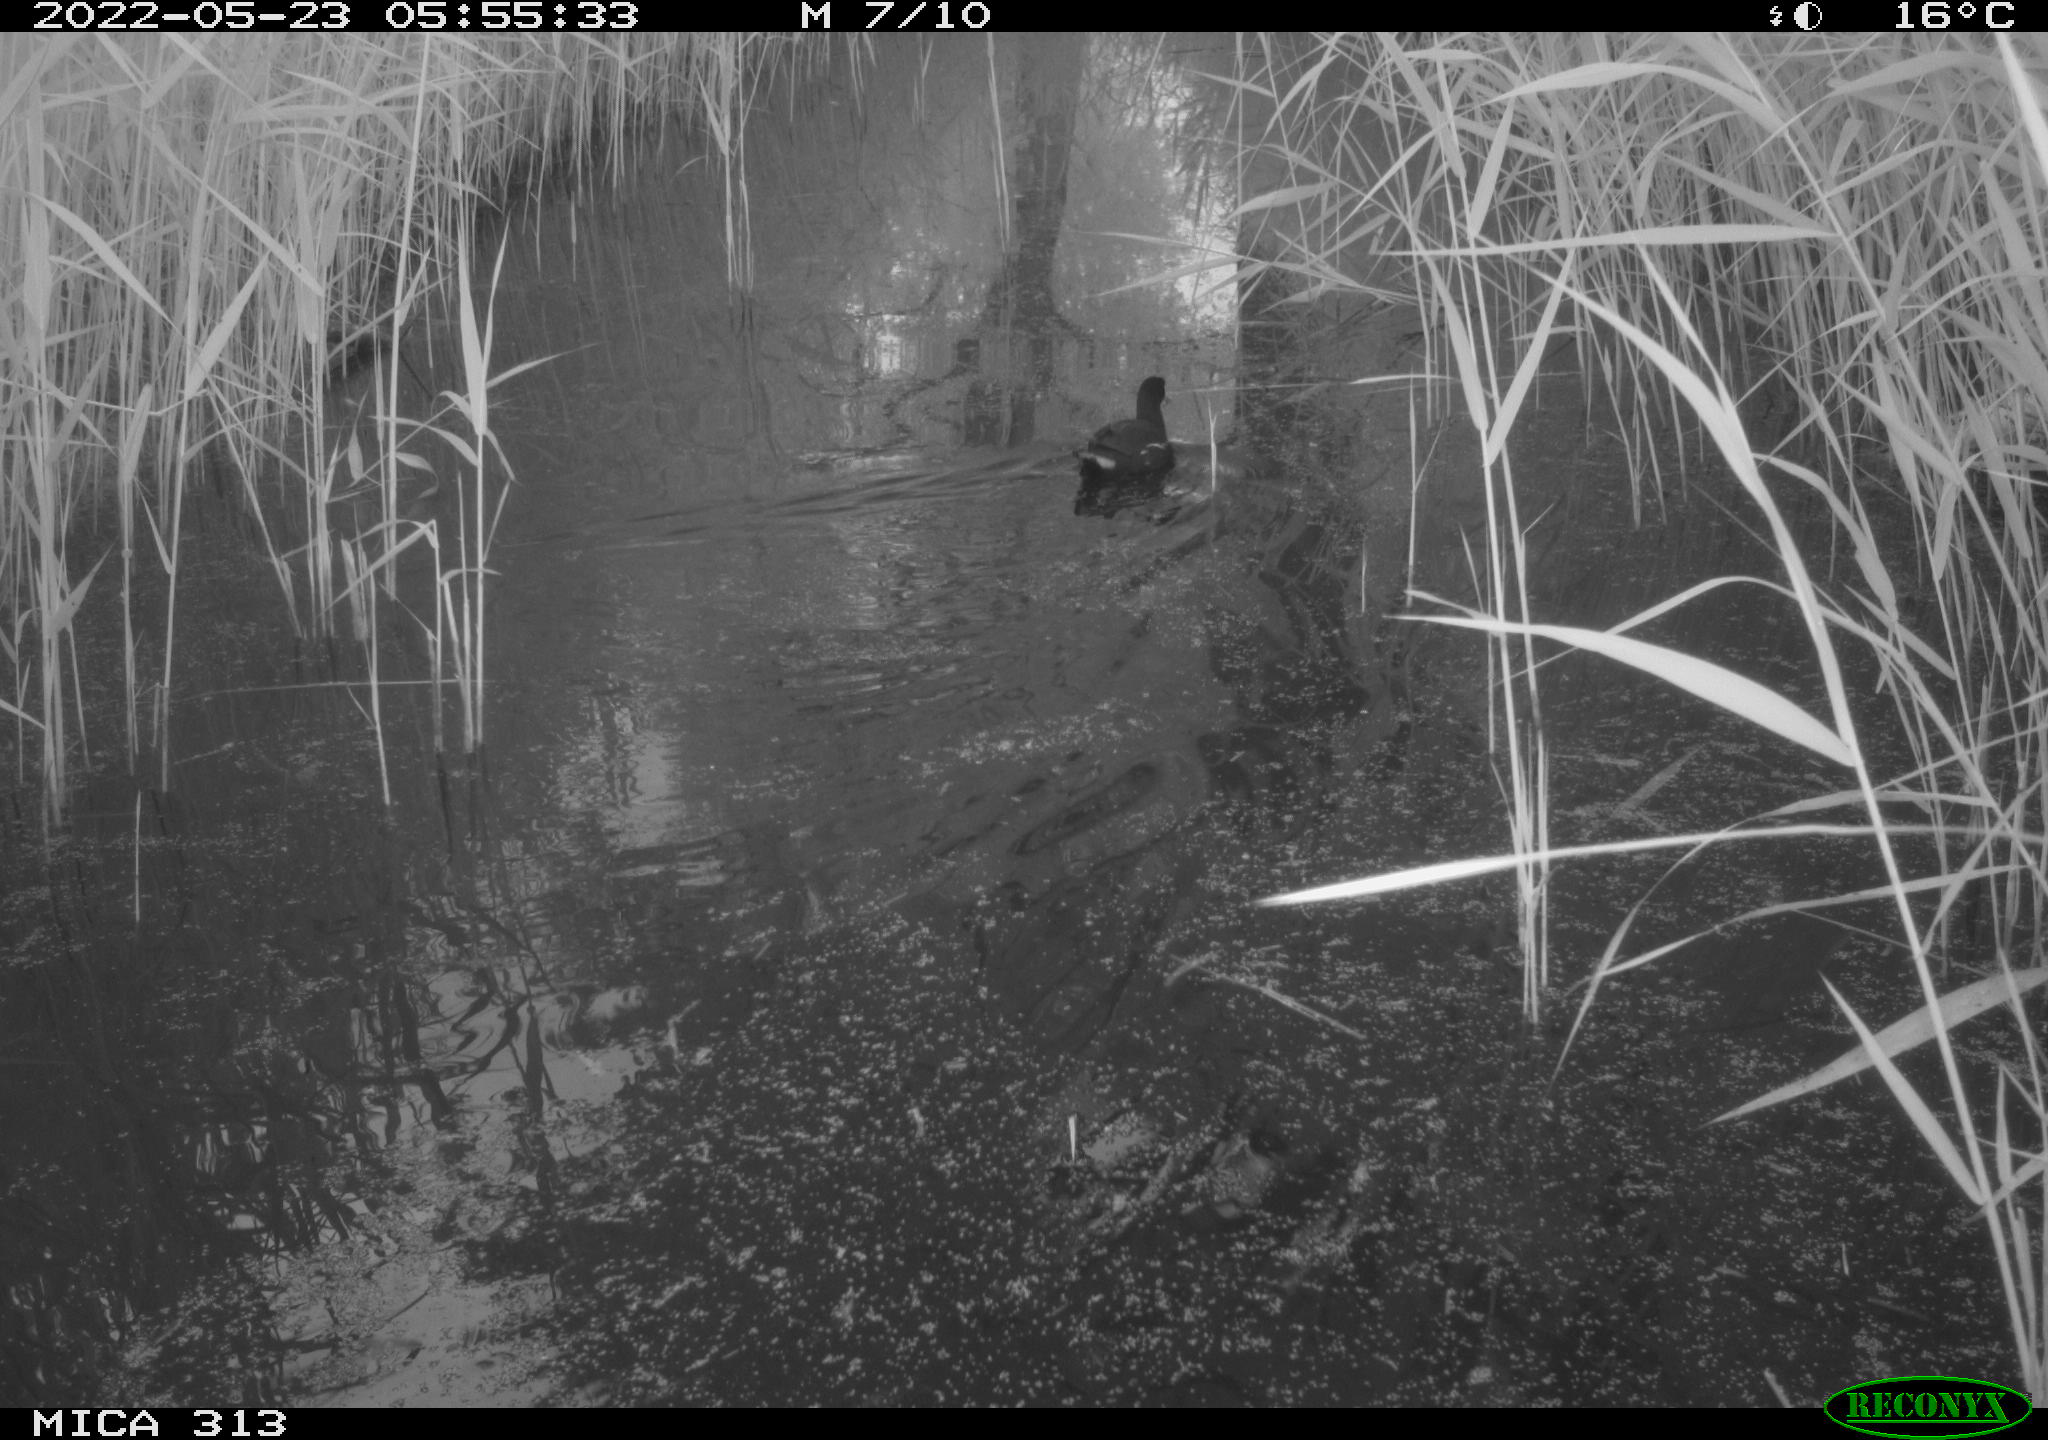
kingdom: Animalia
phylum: Chordata
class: Aves
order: Gruiformes
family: Rallidae
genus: Gallinula
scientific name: Gallinula chloropus
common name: Common moorhen
